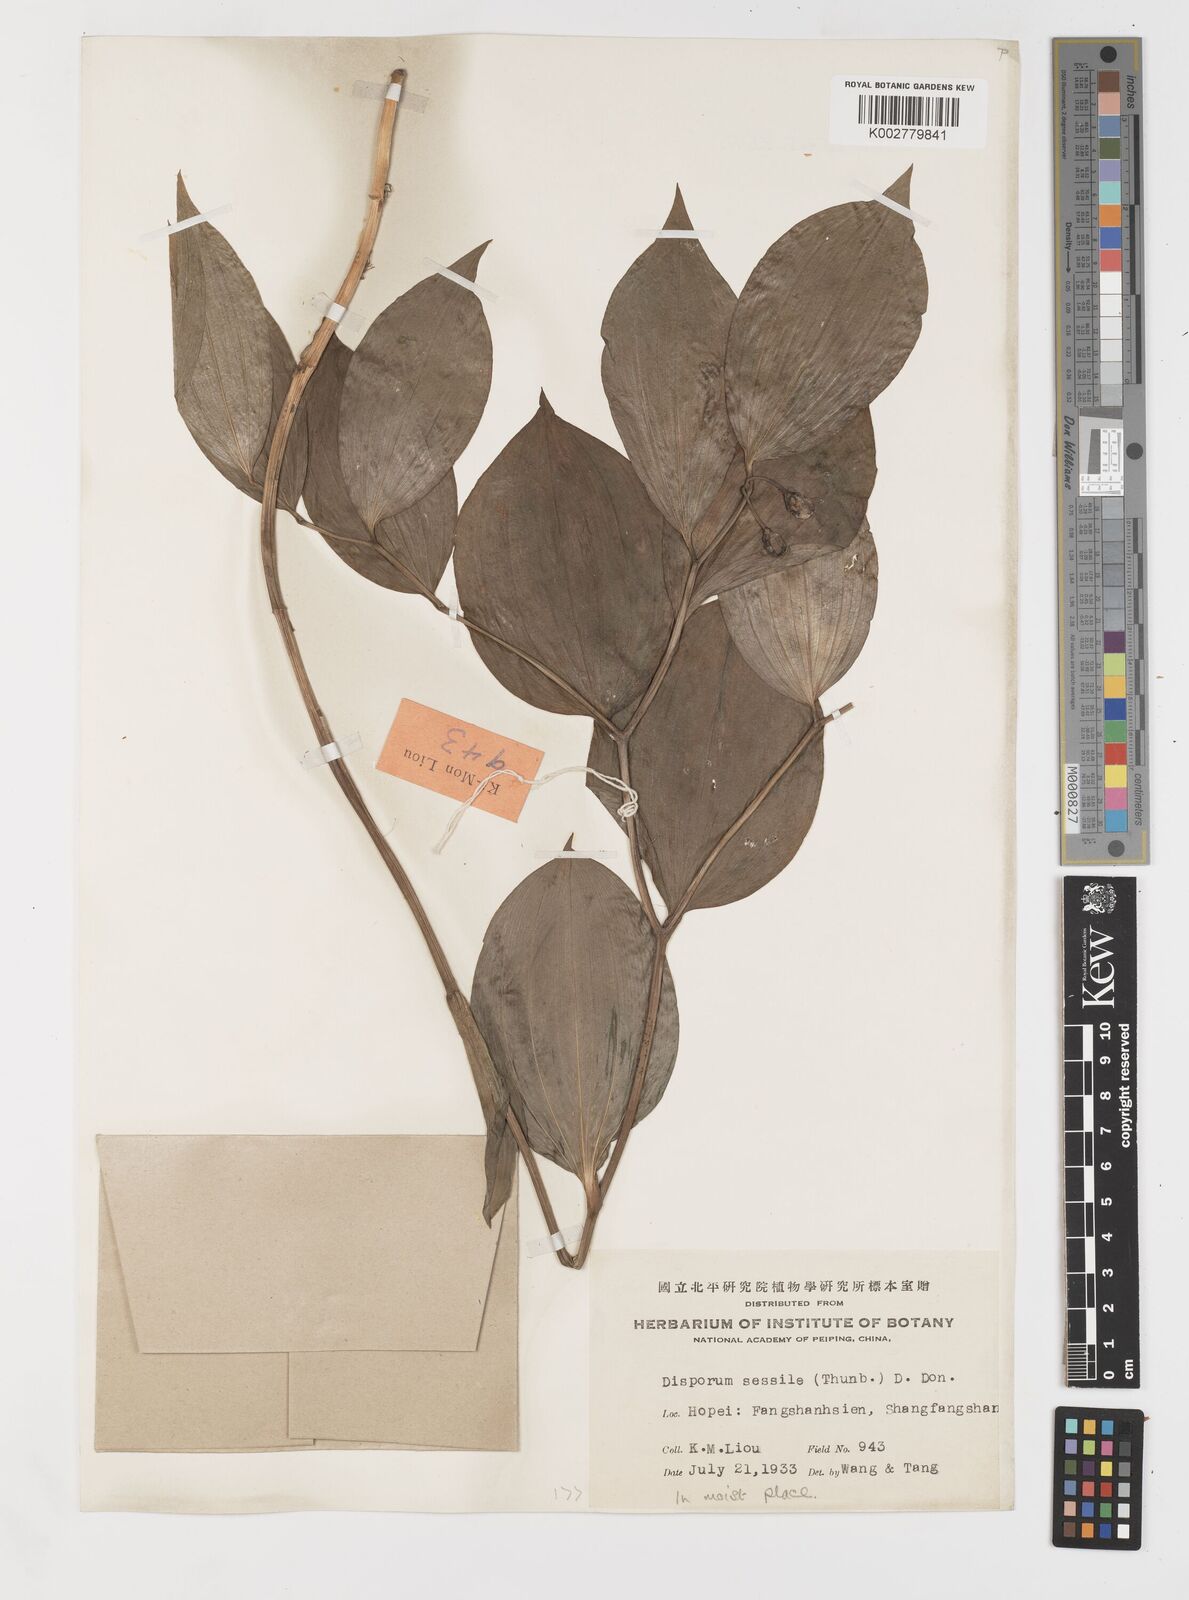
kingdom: Plantae
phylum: Tracheophyta
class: Liliopsida
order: Liliales
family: Colchicaceae
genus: Disporum
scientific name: Disporum sessile
